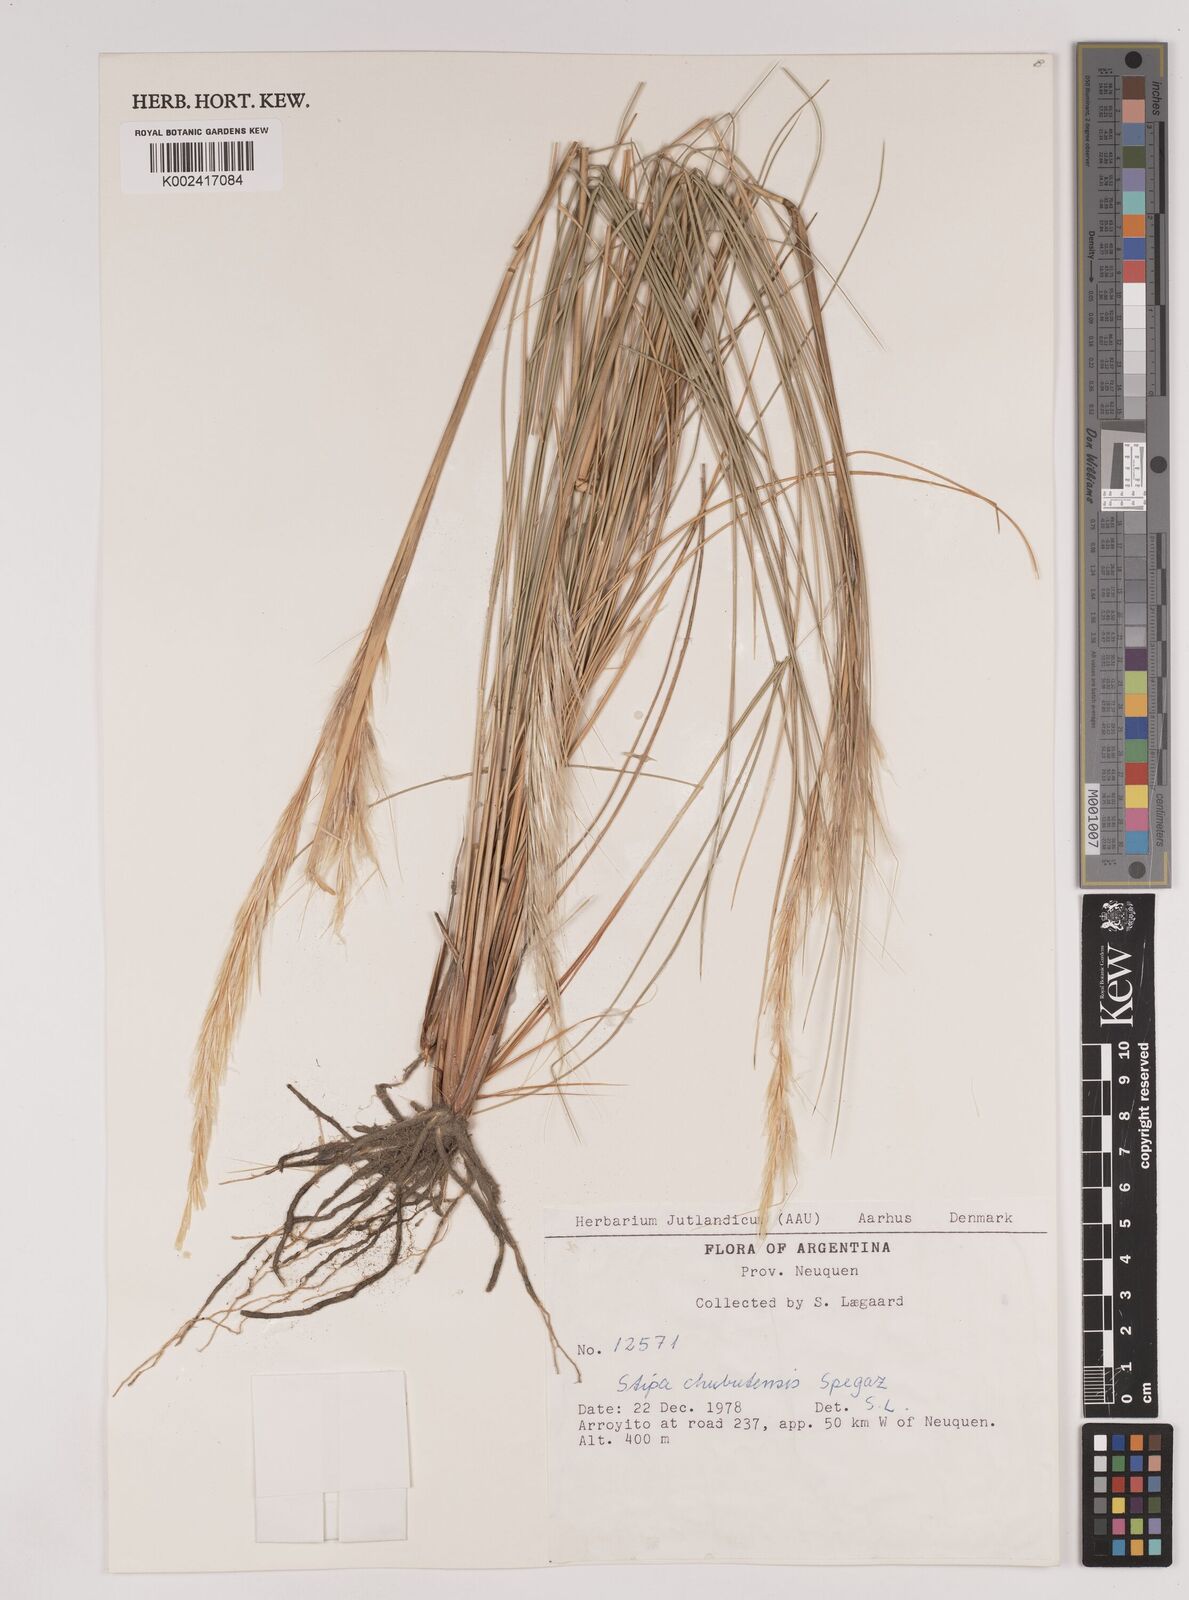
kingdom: Plantae
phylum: Tracheophyta
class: Liliopsida
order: Poales
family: Poaceae
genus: Pappostipa
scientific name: Pappostipa chubutensis
